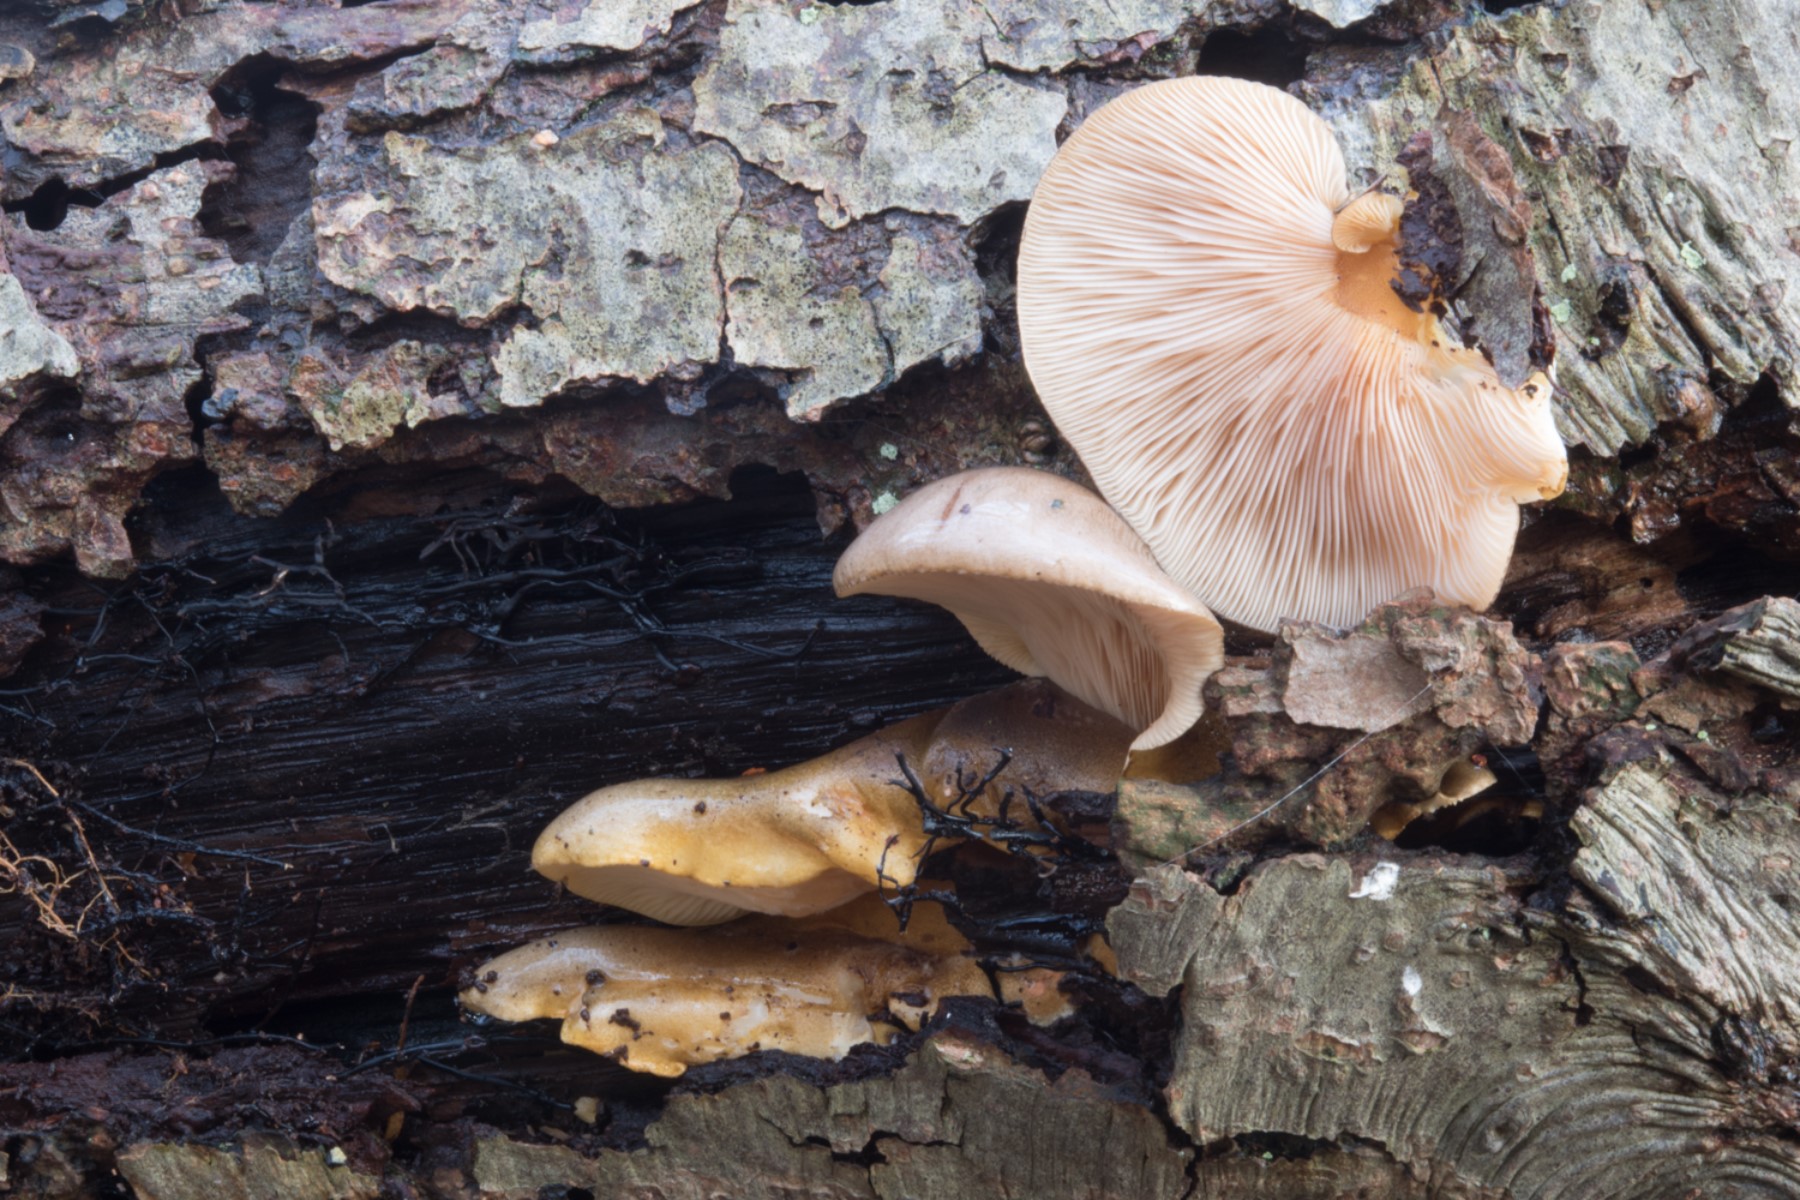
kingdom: Fungi
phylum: Basidiomycota
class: Agaricomycetes
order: Agaricales
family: Sarcomyxaceae
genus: Sarcomyxa
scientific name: Sarcomyxa serotina
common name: gummihat
